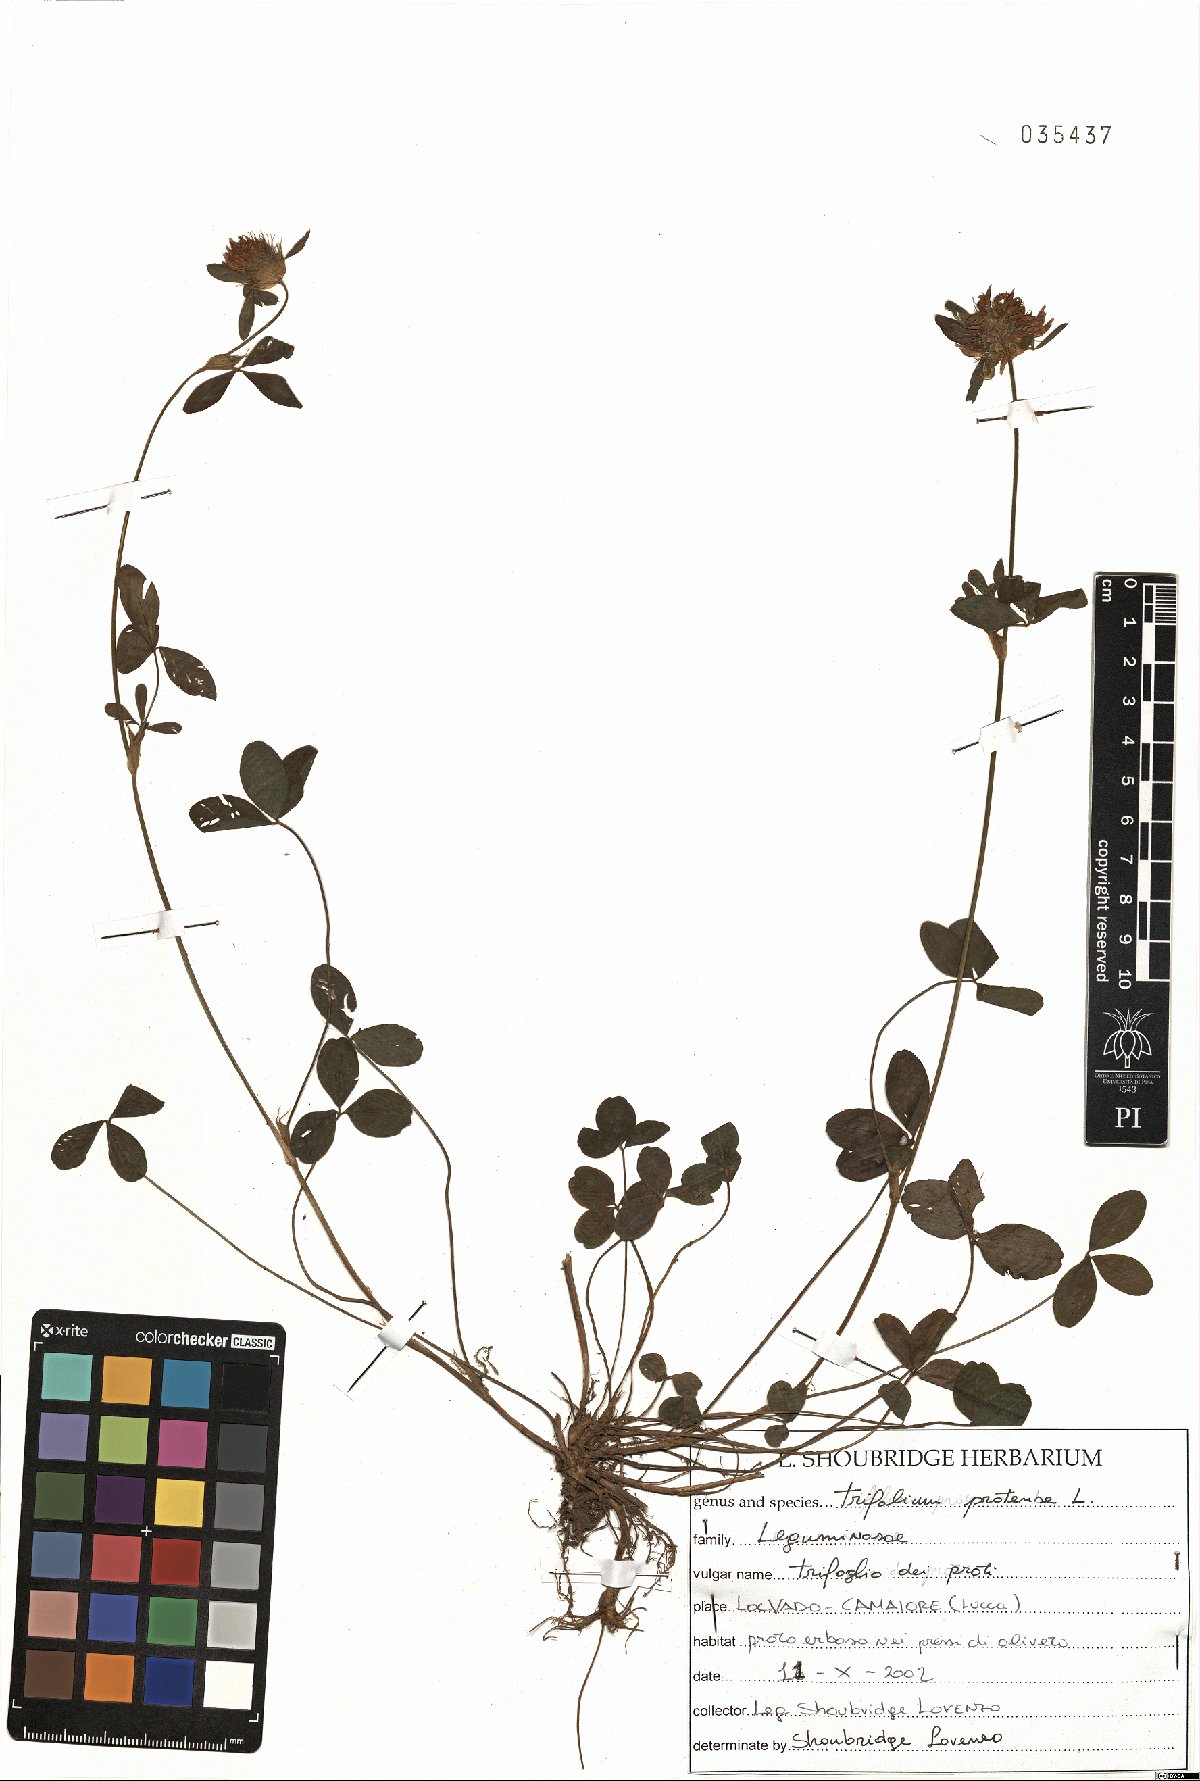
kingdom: Plantae
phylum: Tracheophyta
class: Magnoliopsida
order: Fabales
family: Fabaceae
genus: Trifolium
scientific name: Trifolium pratense
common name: Red clover
